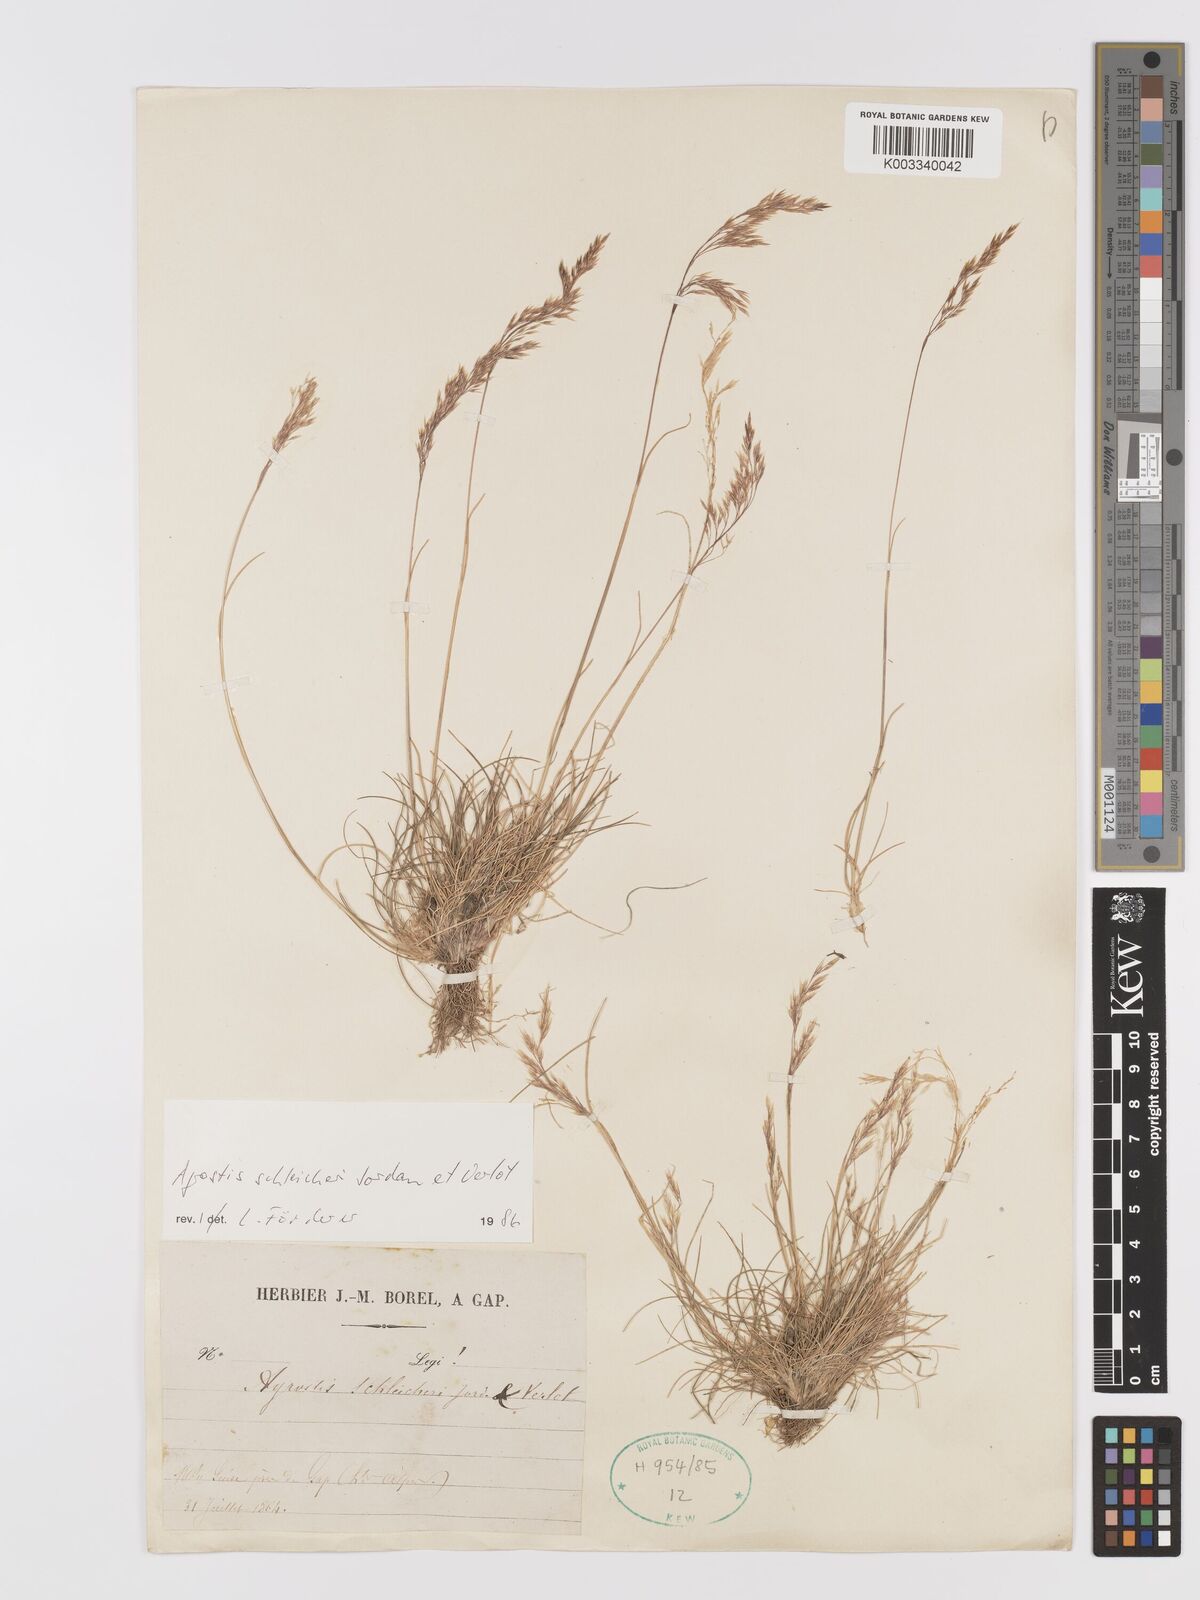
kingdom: Plantae
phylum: Tracheophyta
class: Liliopsida
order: Poales
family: Poaceae
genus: Alpagrostis
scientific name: Alpagrostis schleicheri
